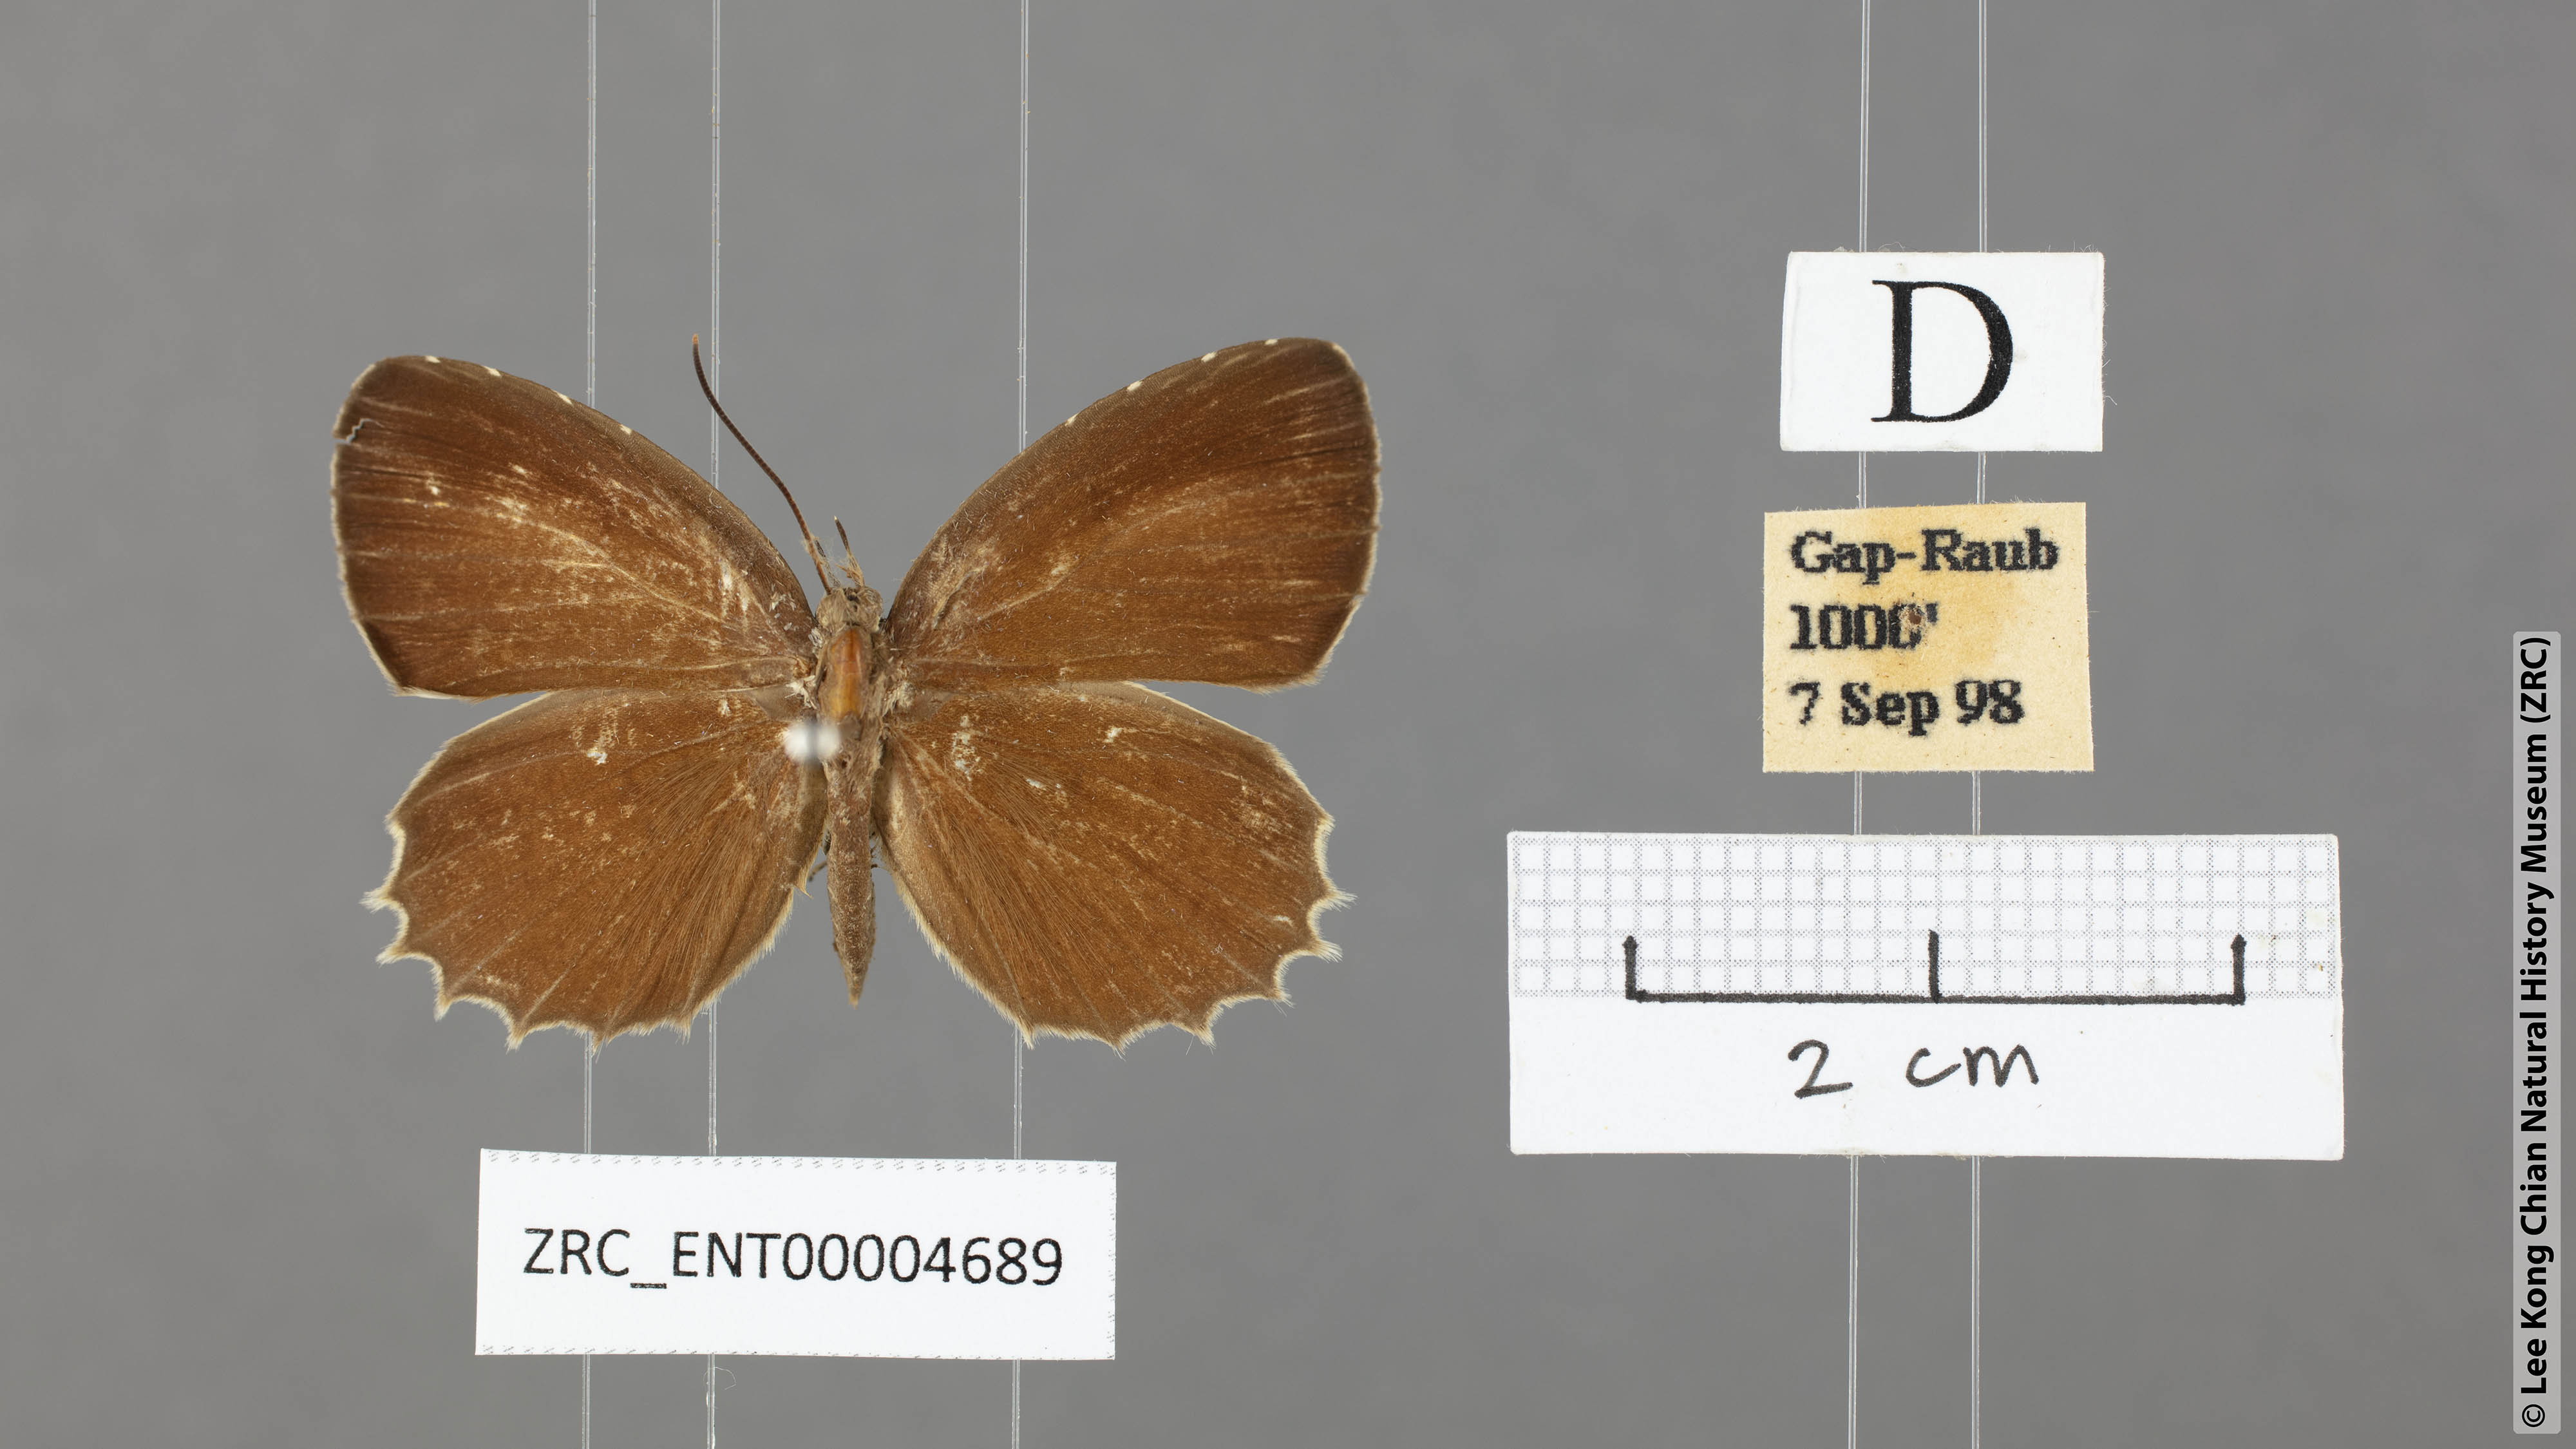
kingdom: Animalia
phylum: Arthropoda
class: Insecta
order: Lepidoptera
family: Lycaenidae
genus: Allotinus
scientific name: Allotinus horsfieldi
